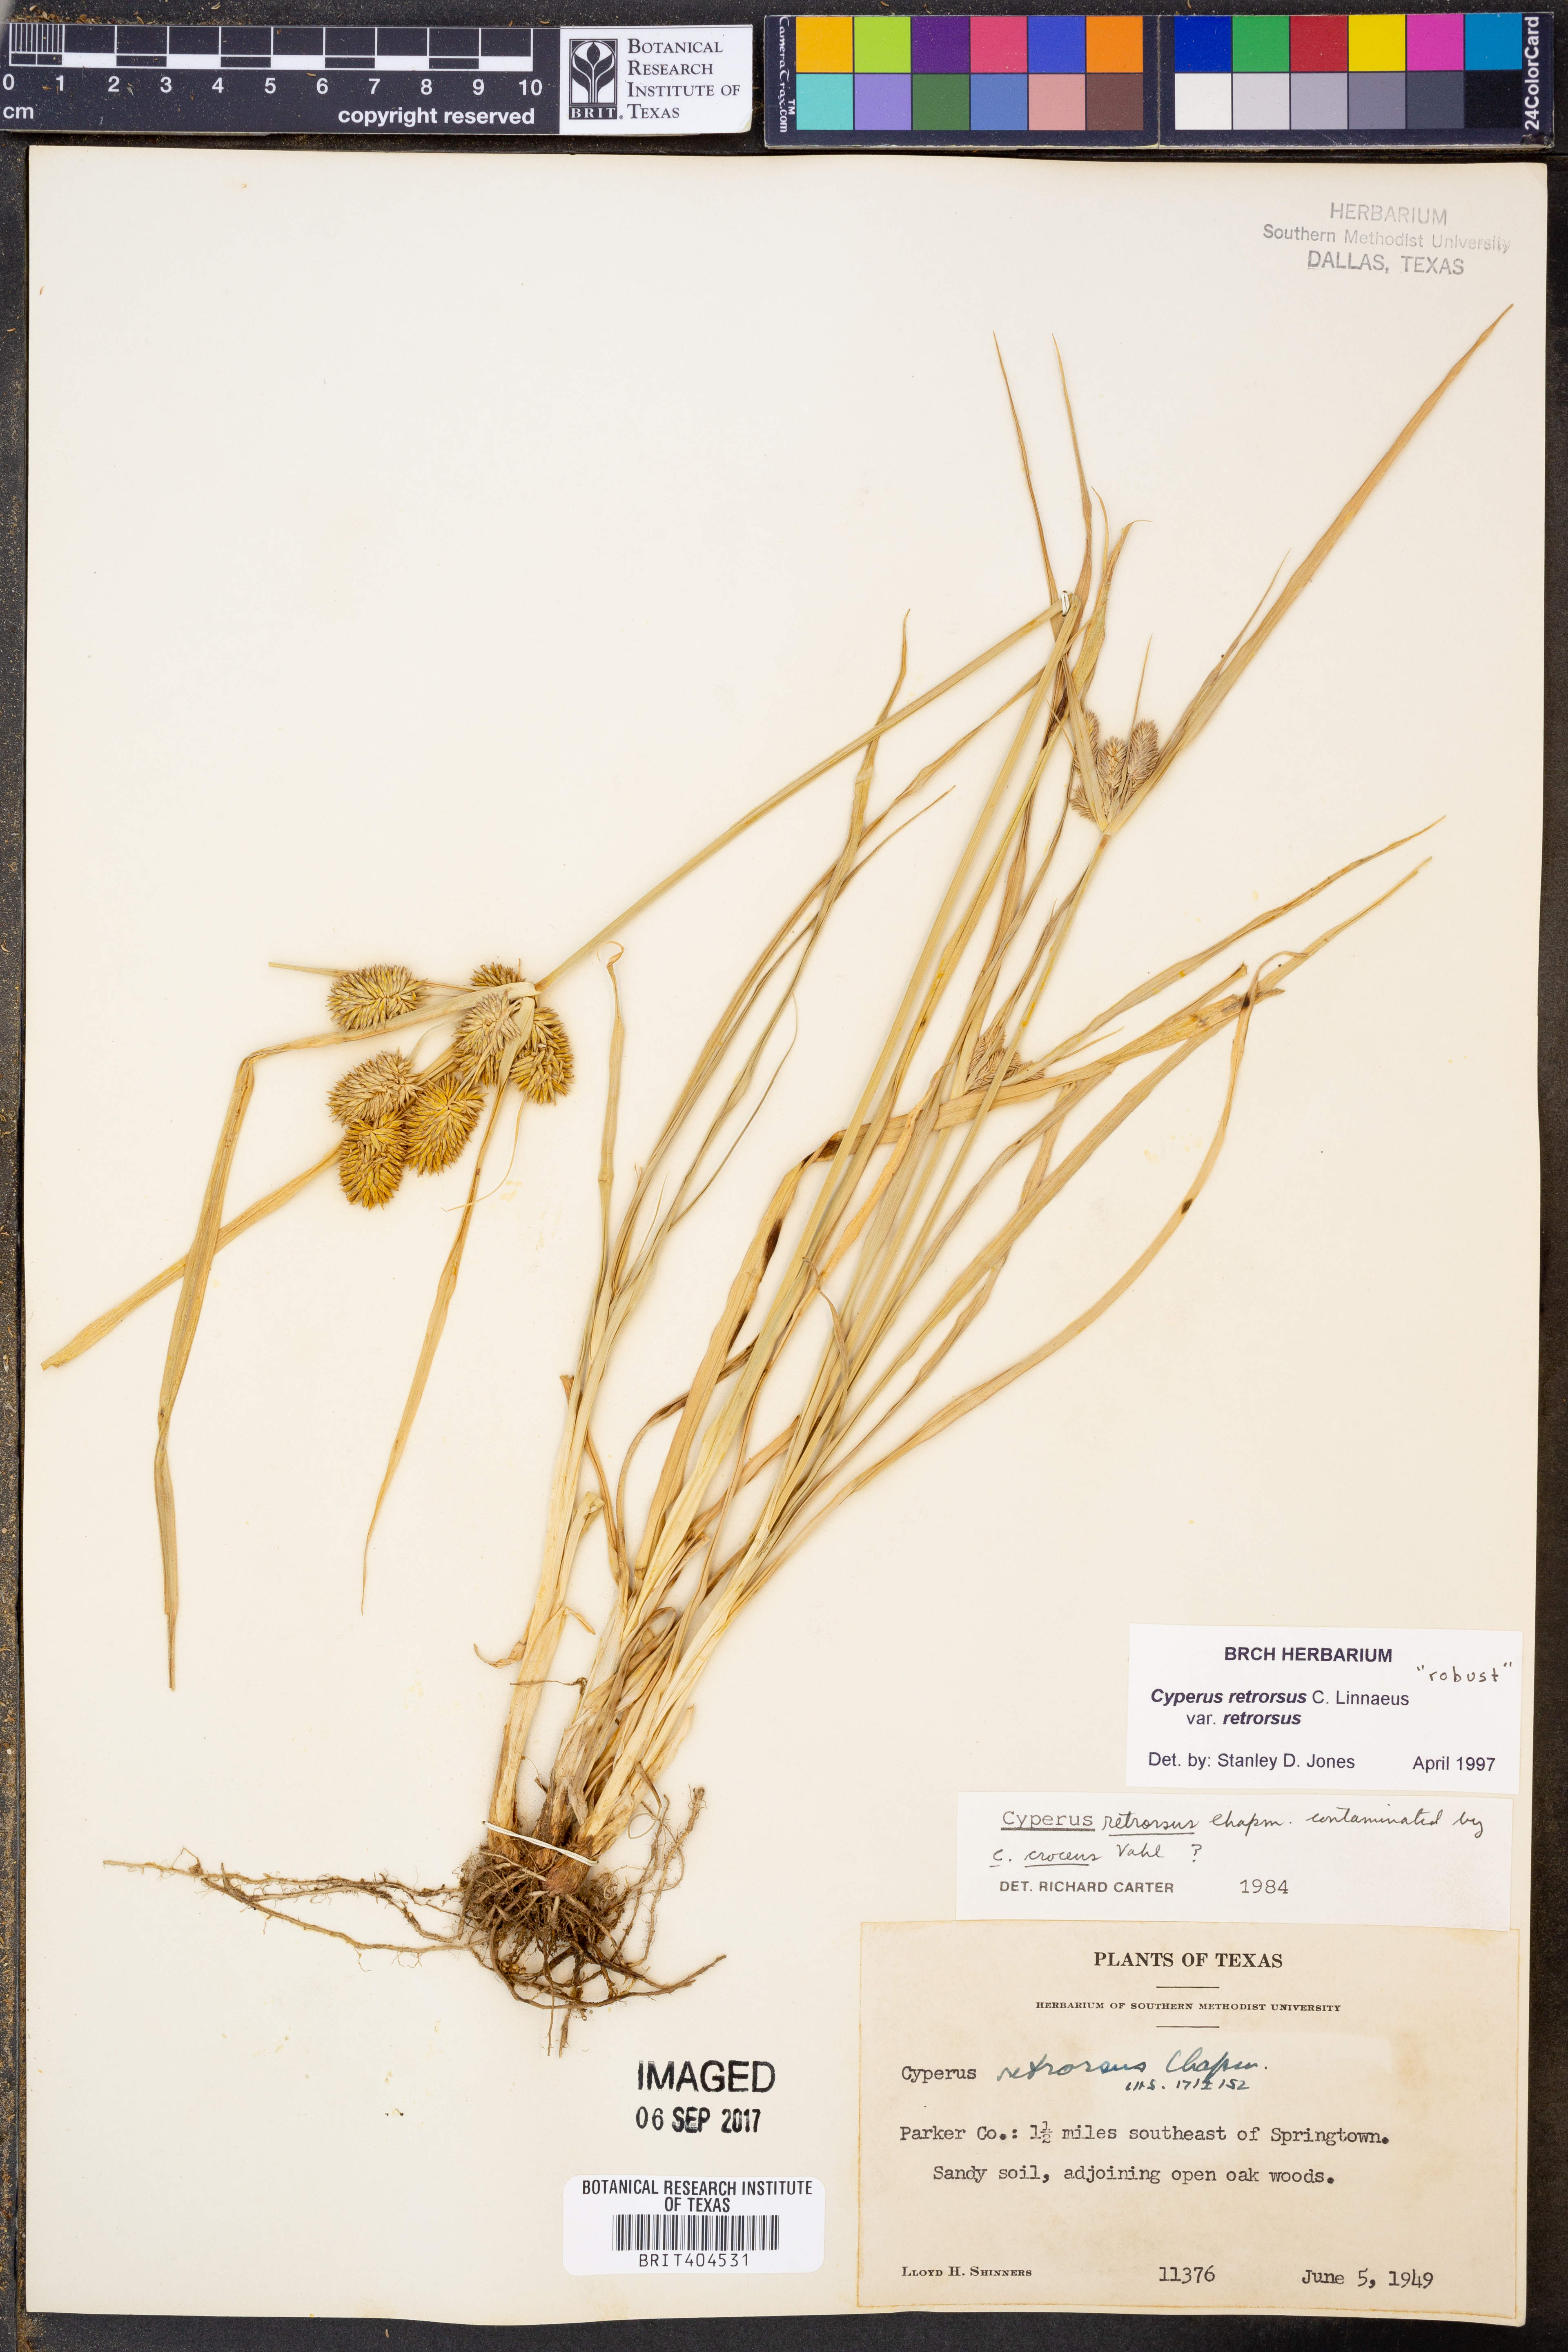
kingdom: Plantae
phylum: Tracheophyta
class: Liliopsida
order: Poales
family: Cyperaceae
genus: Cyperus
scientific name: Cyperus retrorsus
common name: Pinebarren flat sedge
